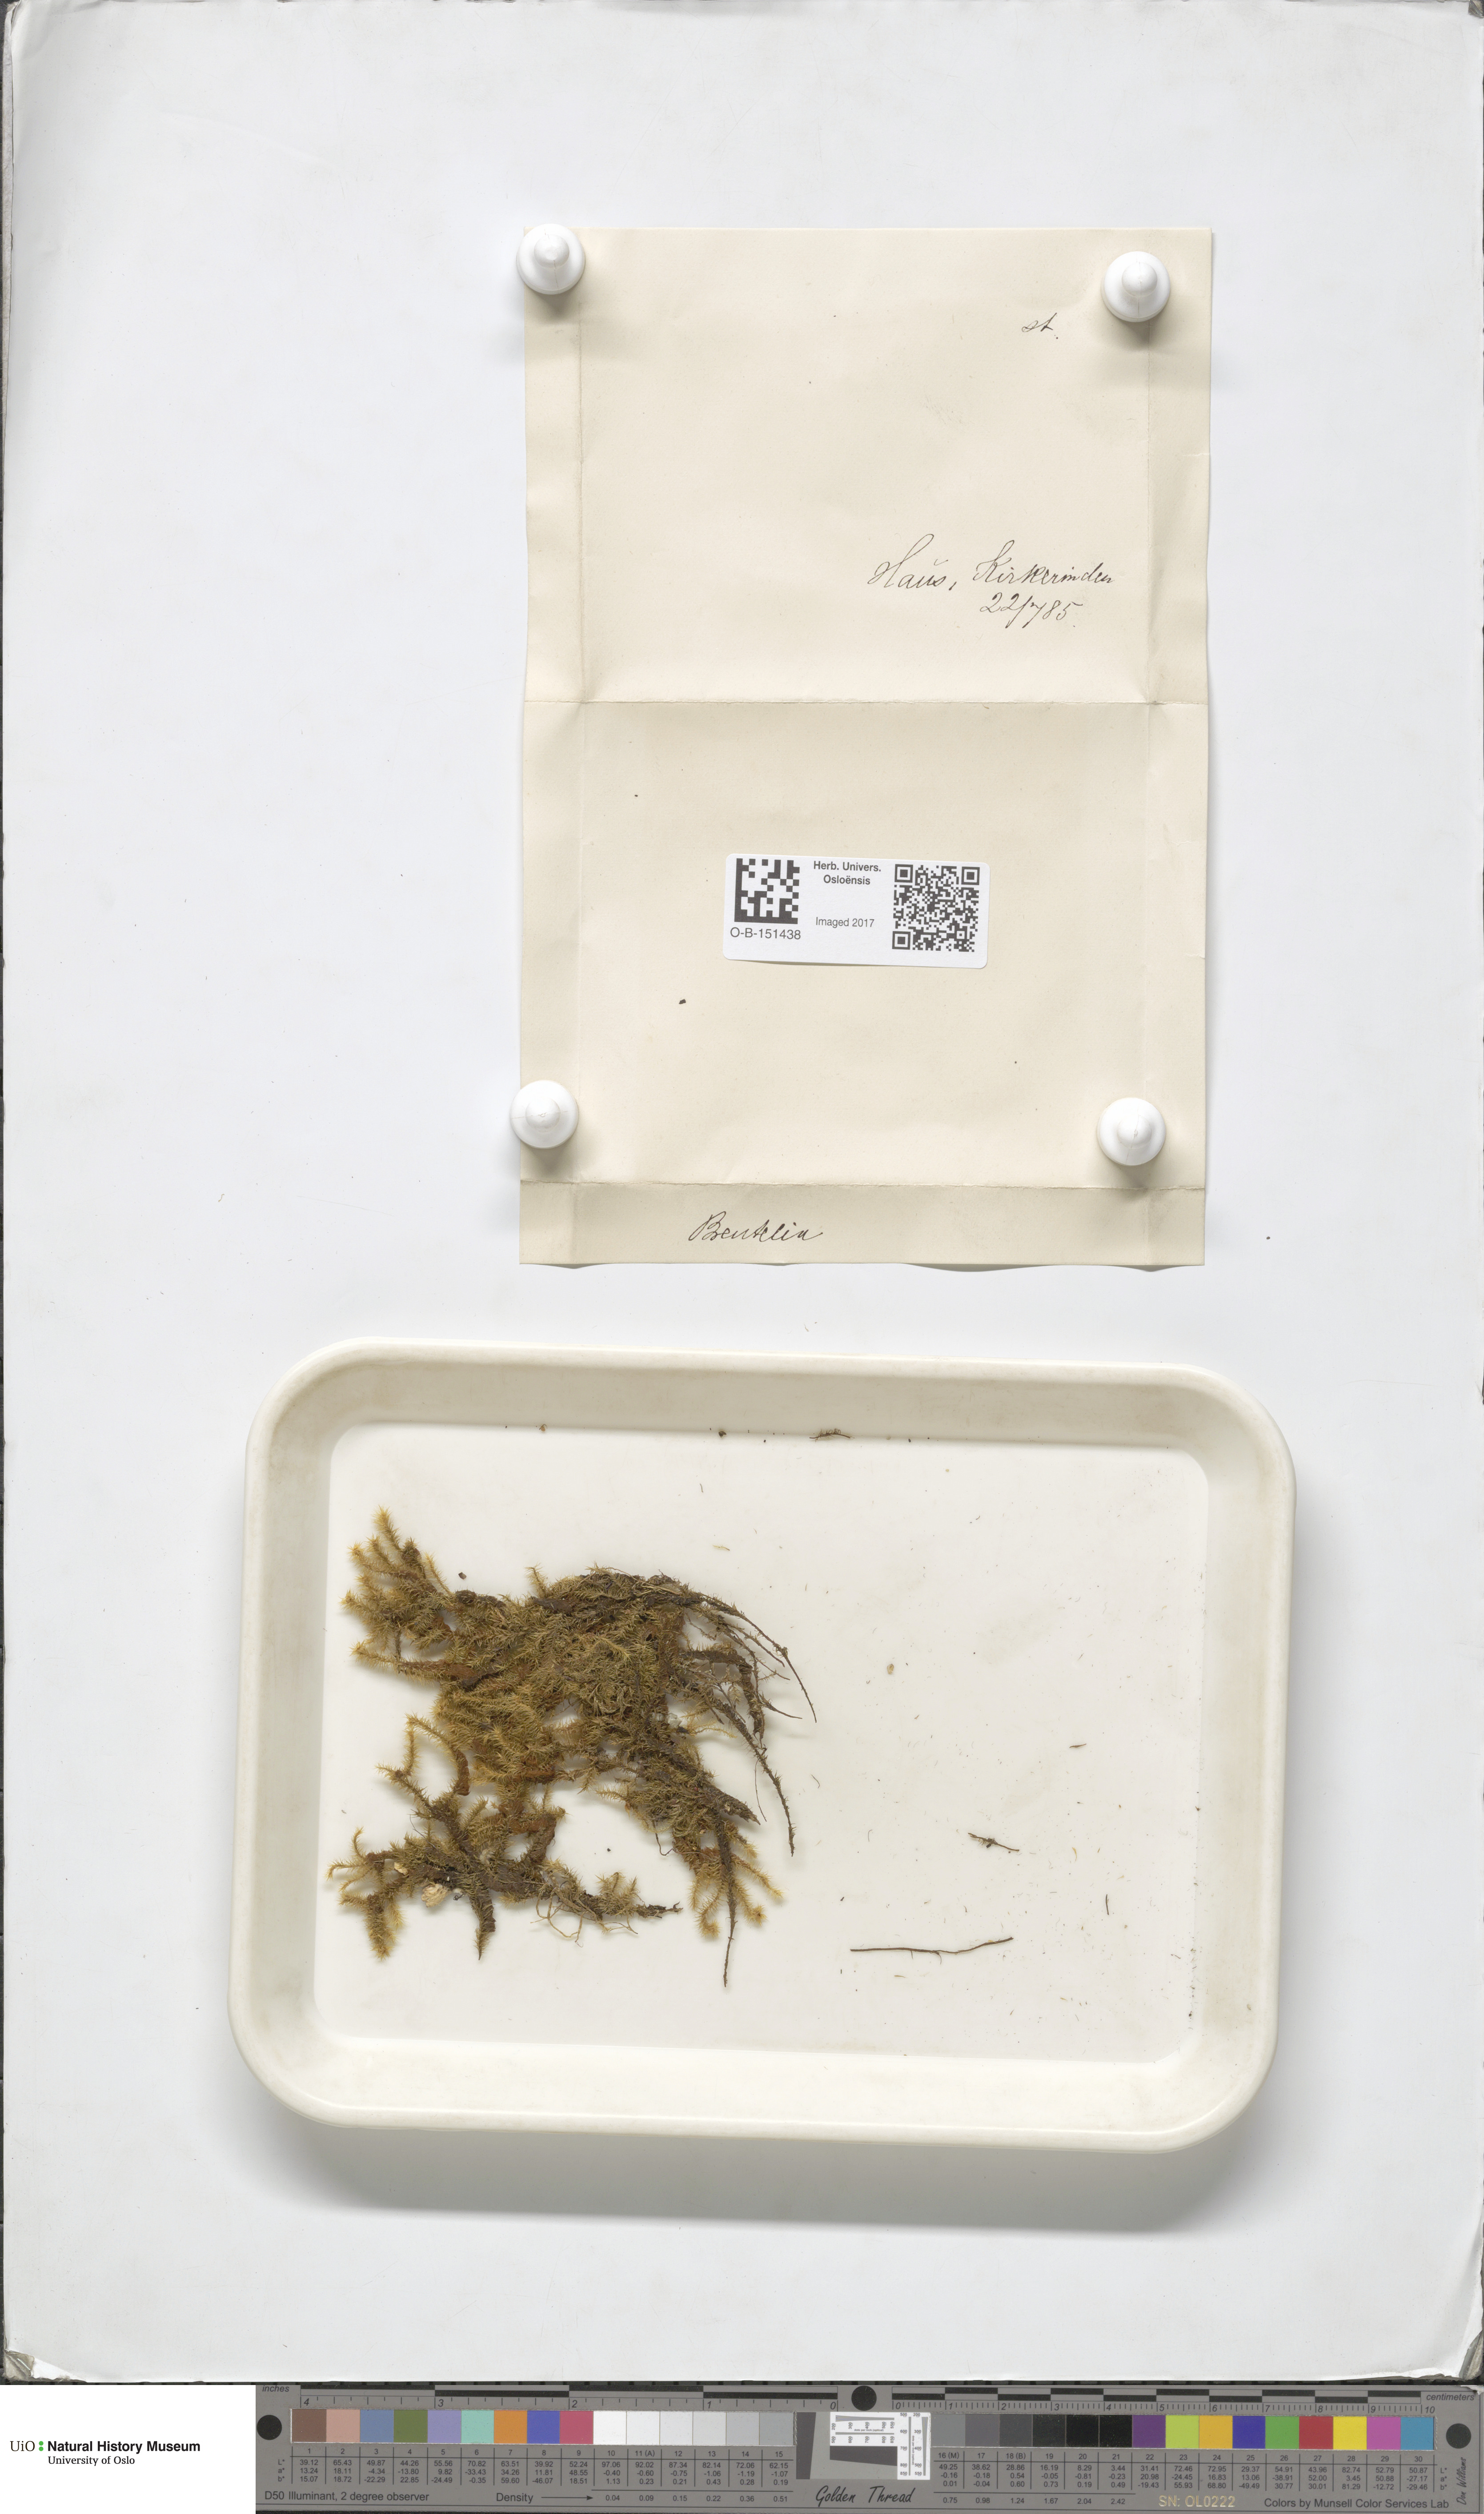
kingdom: Plantae
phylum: Bryophyta
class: Bryopsida
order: Bartramiales
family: Bartramiaceae
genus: Breutelia
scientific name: Breutelia chrysocoma
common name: Bottle-brush moss
